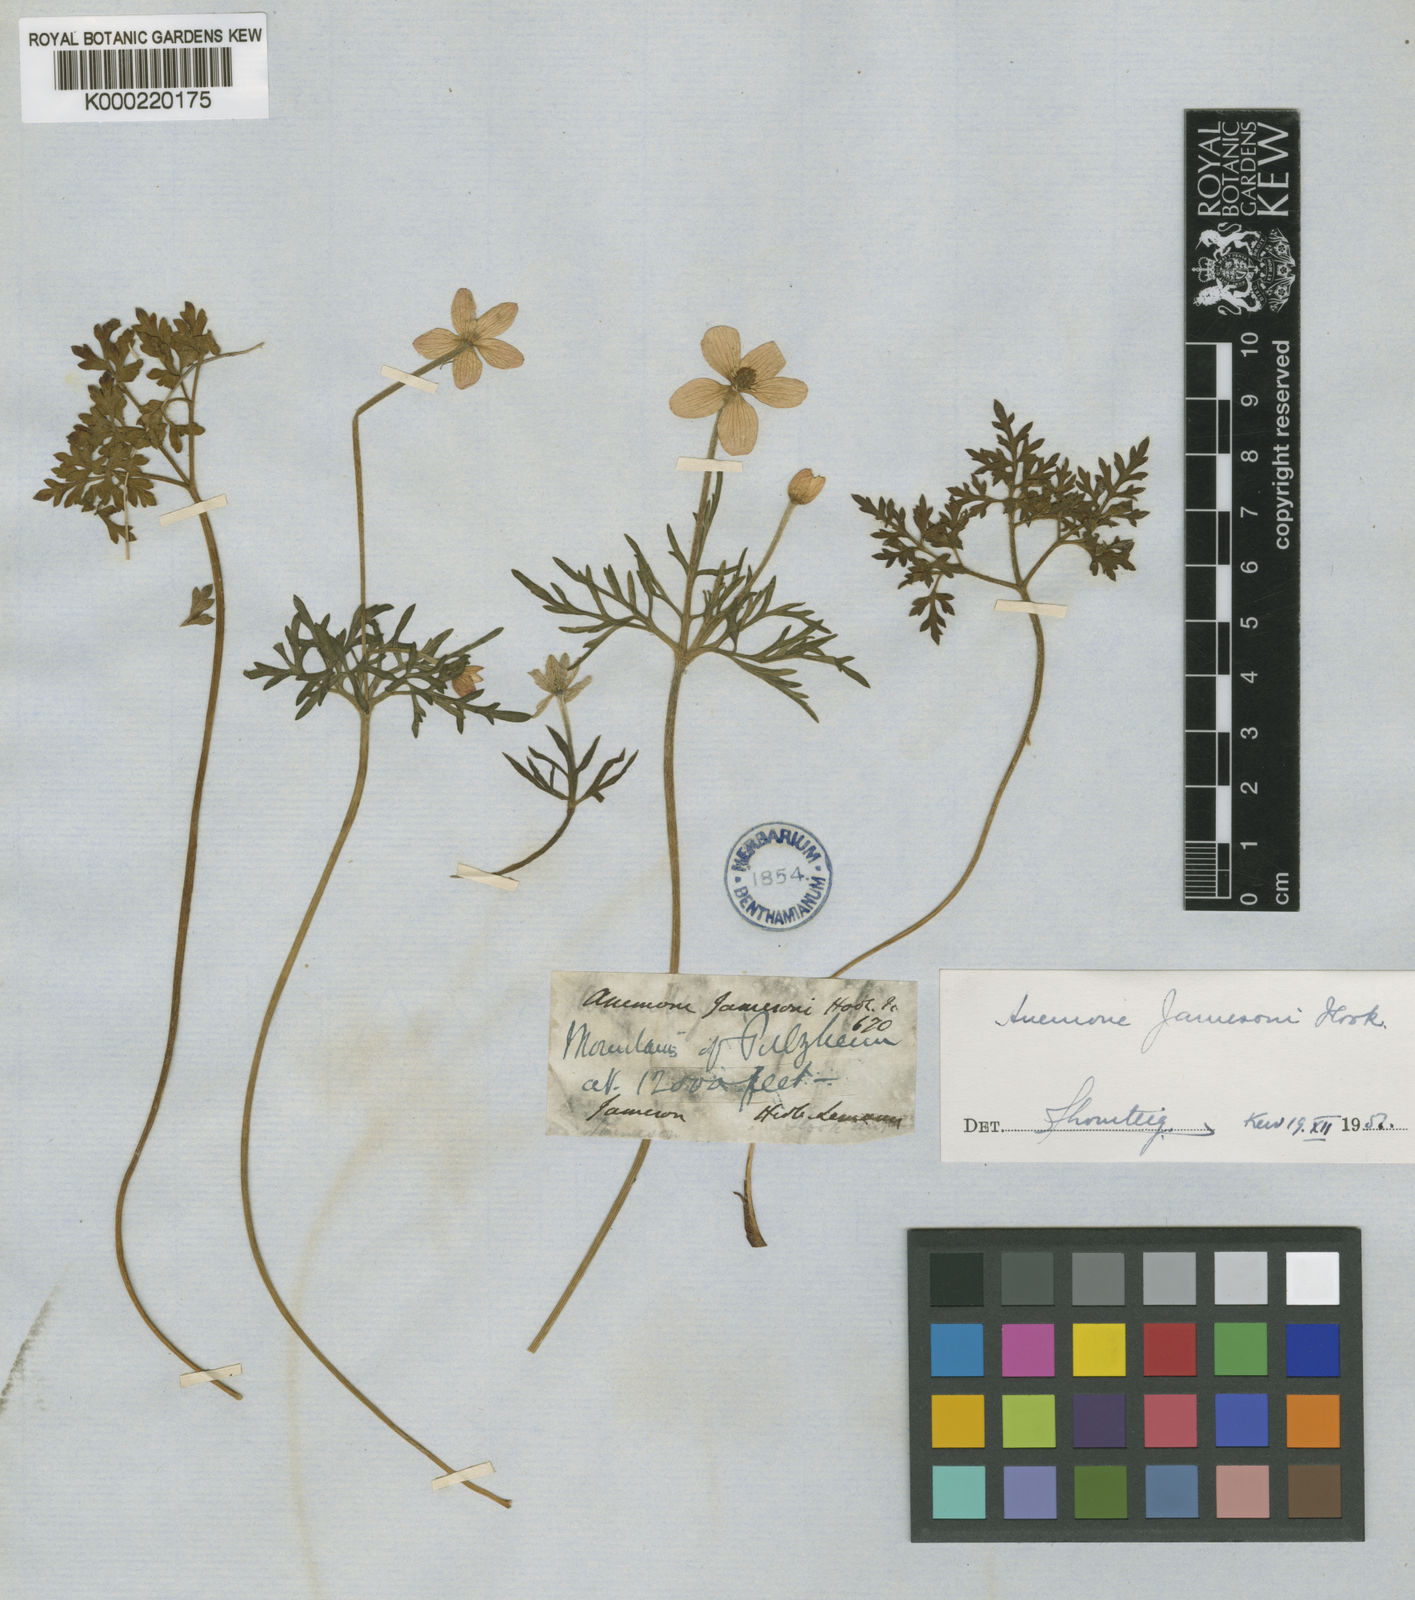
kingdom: Plantae
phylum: Tracheophyta
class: Magnoliopsida
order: Ranunculales
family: Ranunculaceae
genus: Anemone
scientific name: Anemone decapetala
